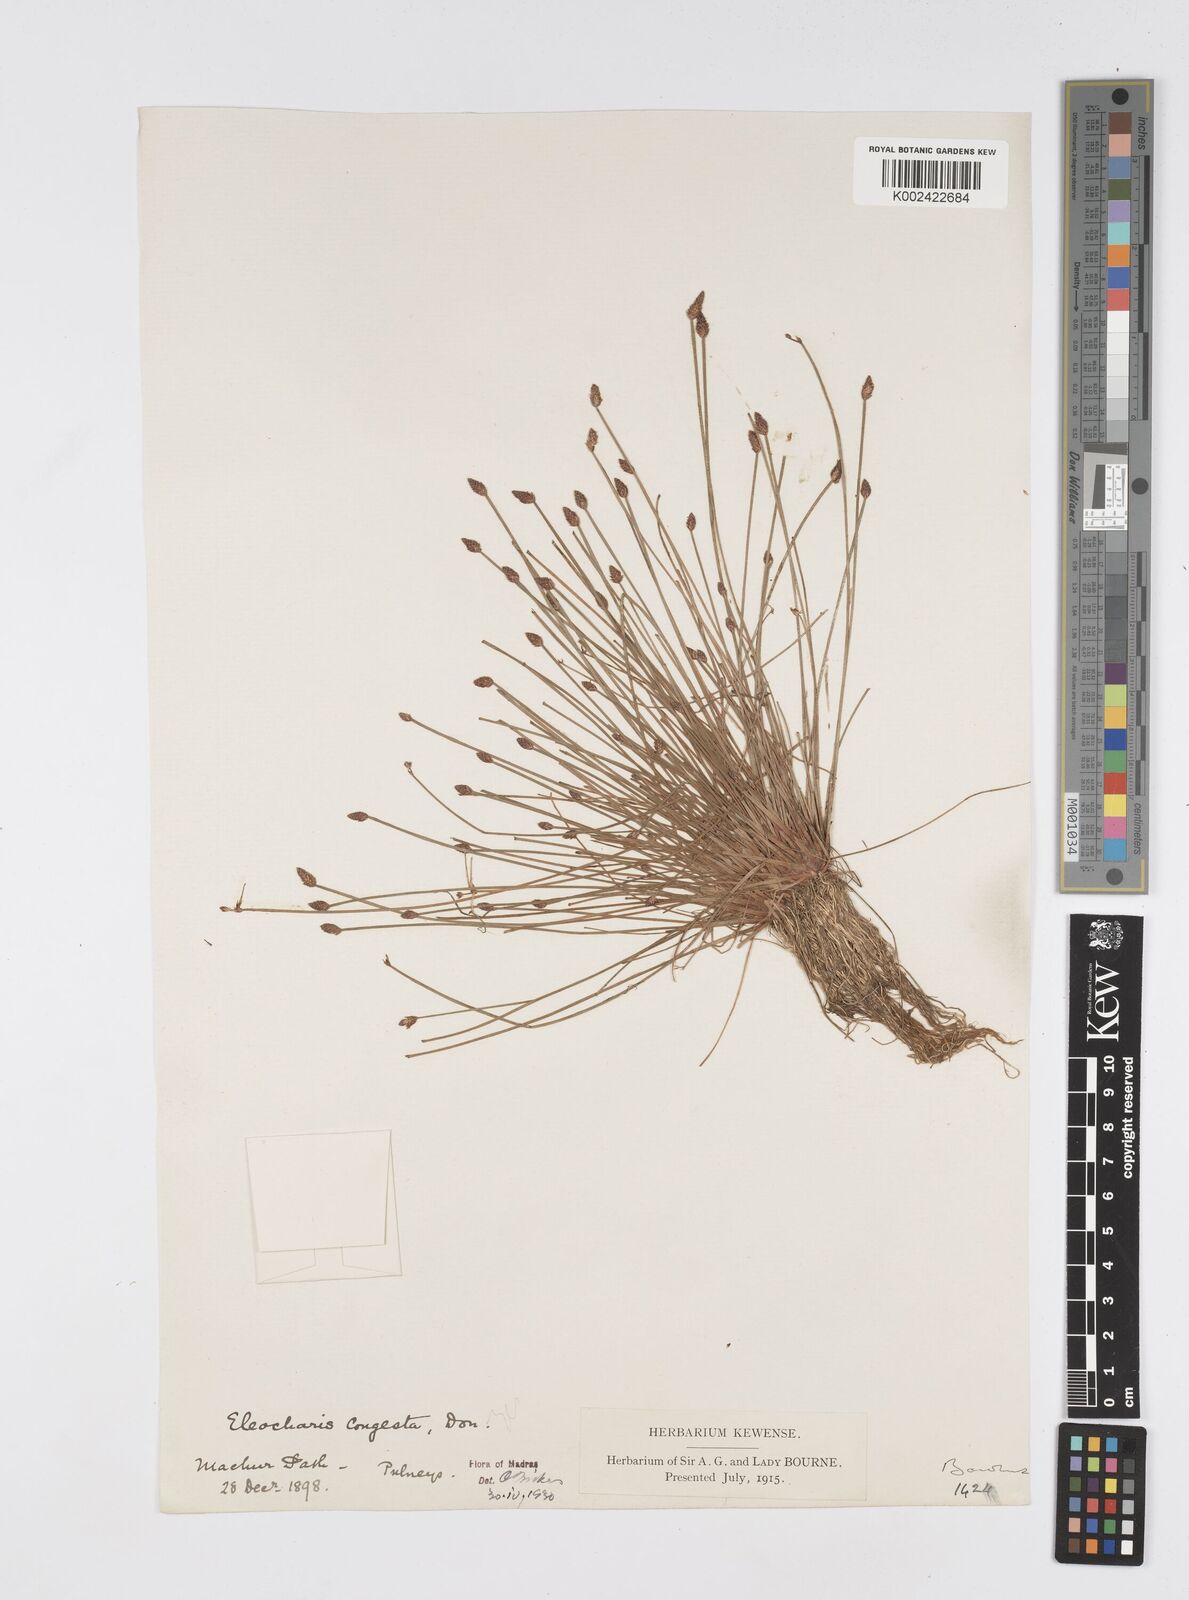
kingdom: Plantae
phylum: Tracheophyta
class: Liliopsida
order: Poales
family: Cyperaceae
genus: Eleocharis
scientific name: Eleocharis congesta
